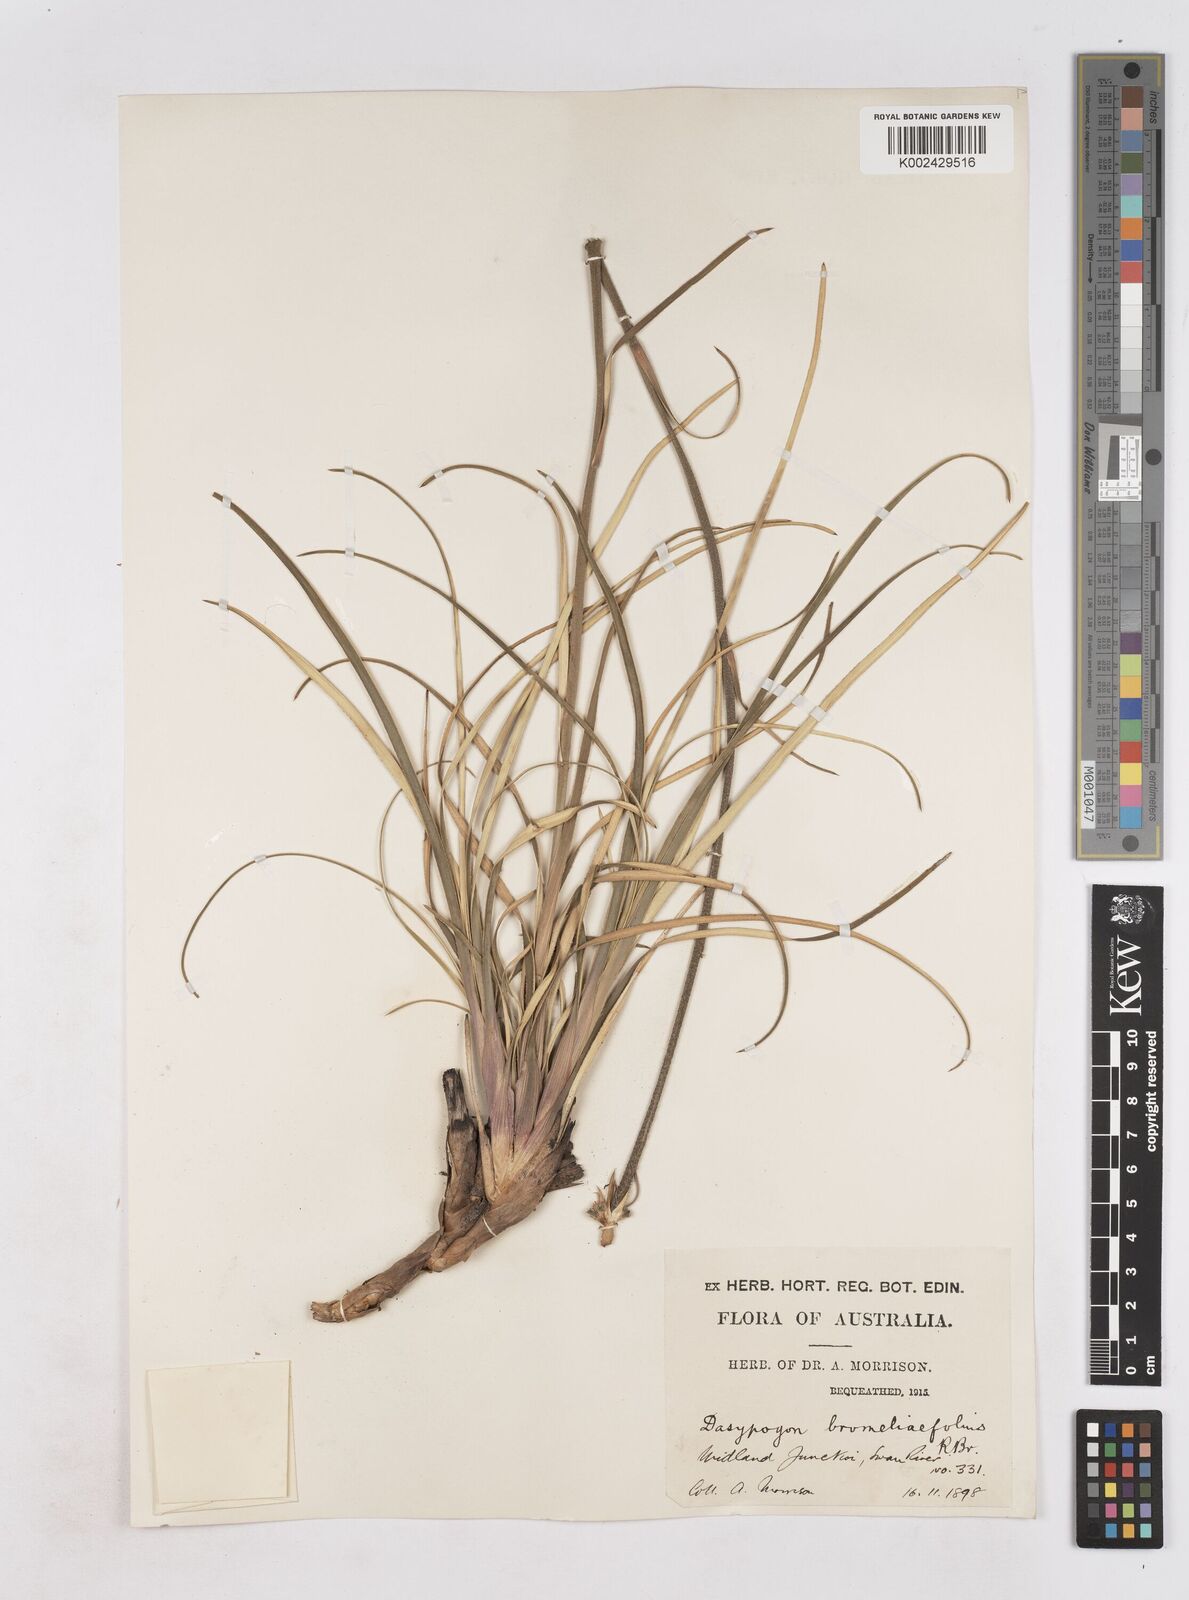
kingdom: Plantae
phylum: Tracheophyta
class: Liliopsida
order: Arecales
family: Dasypogonaceae
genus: Dasypogon
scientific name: Dasypogon bromeliifolius
